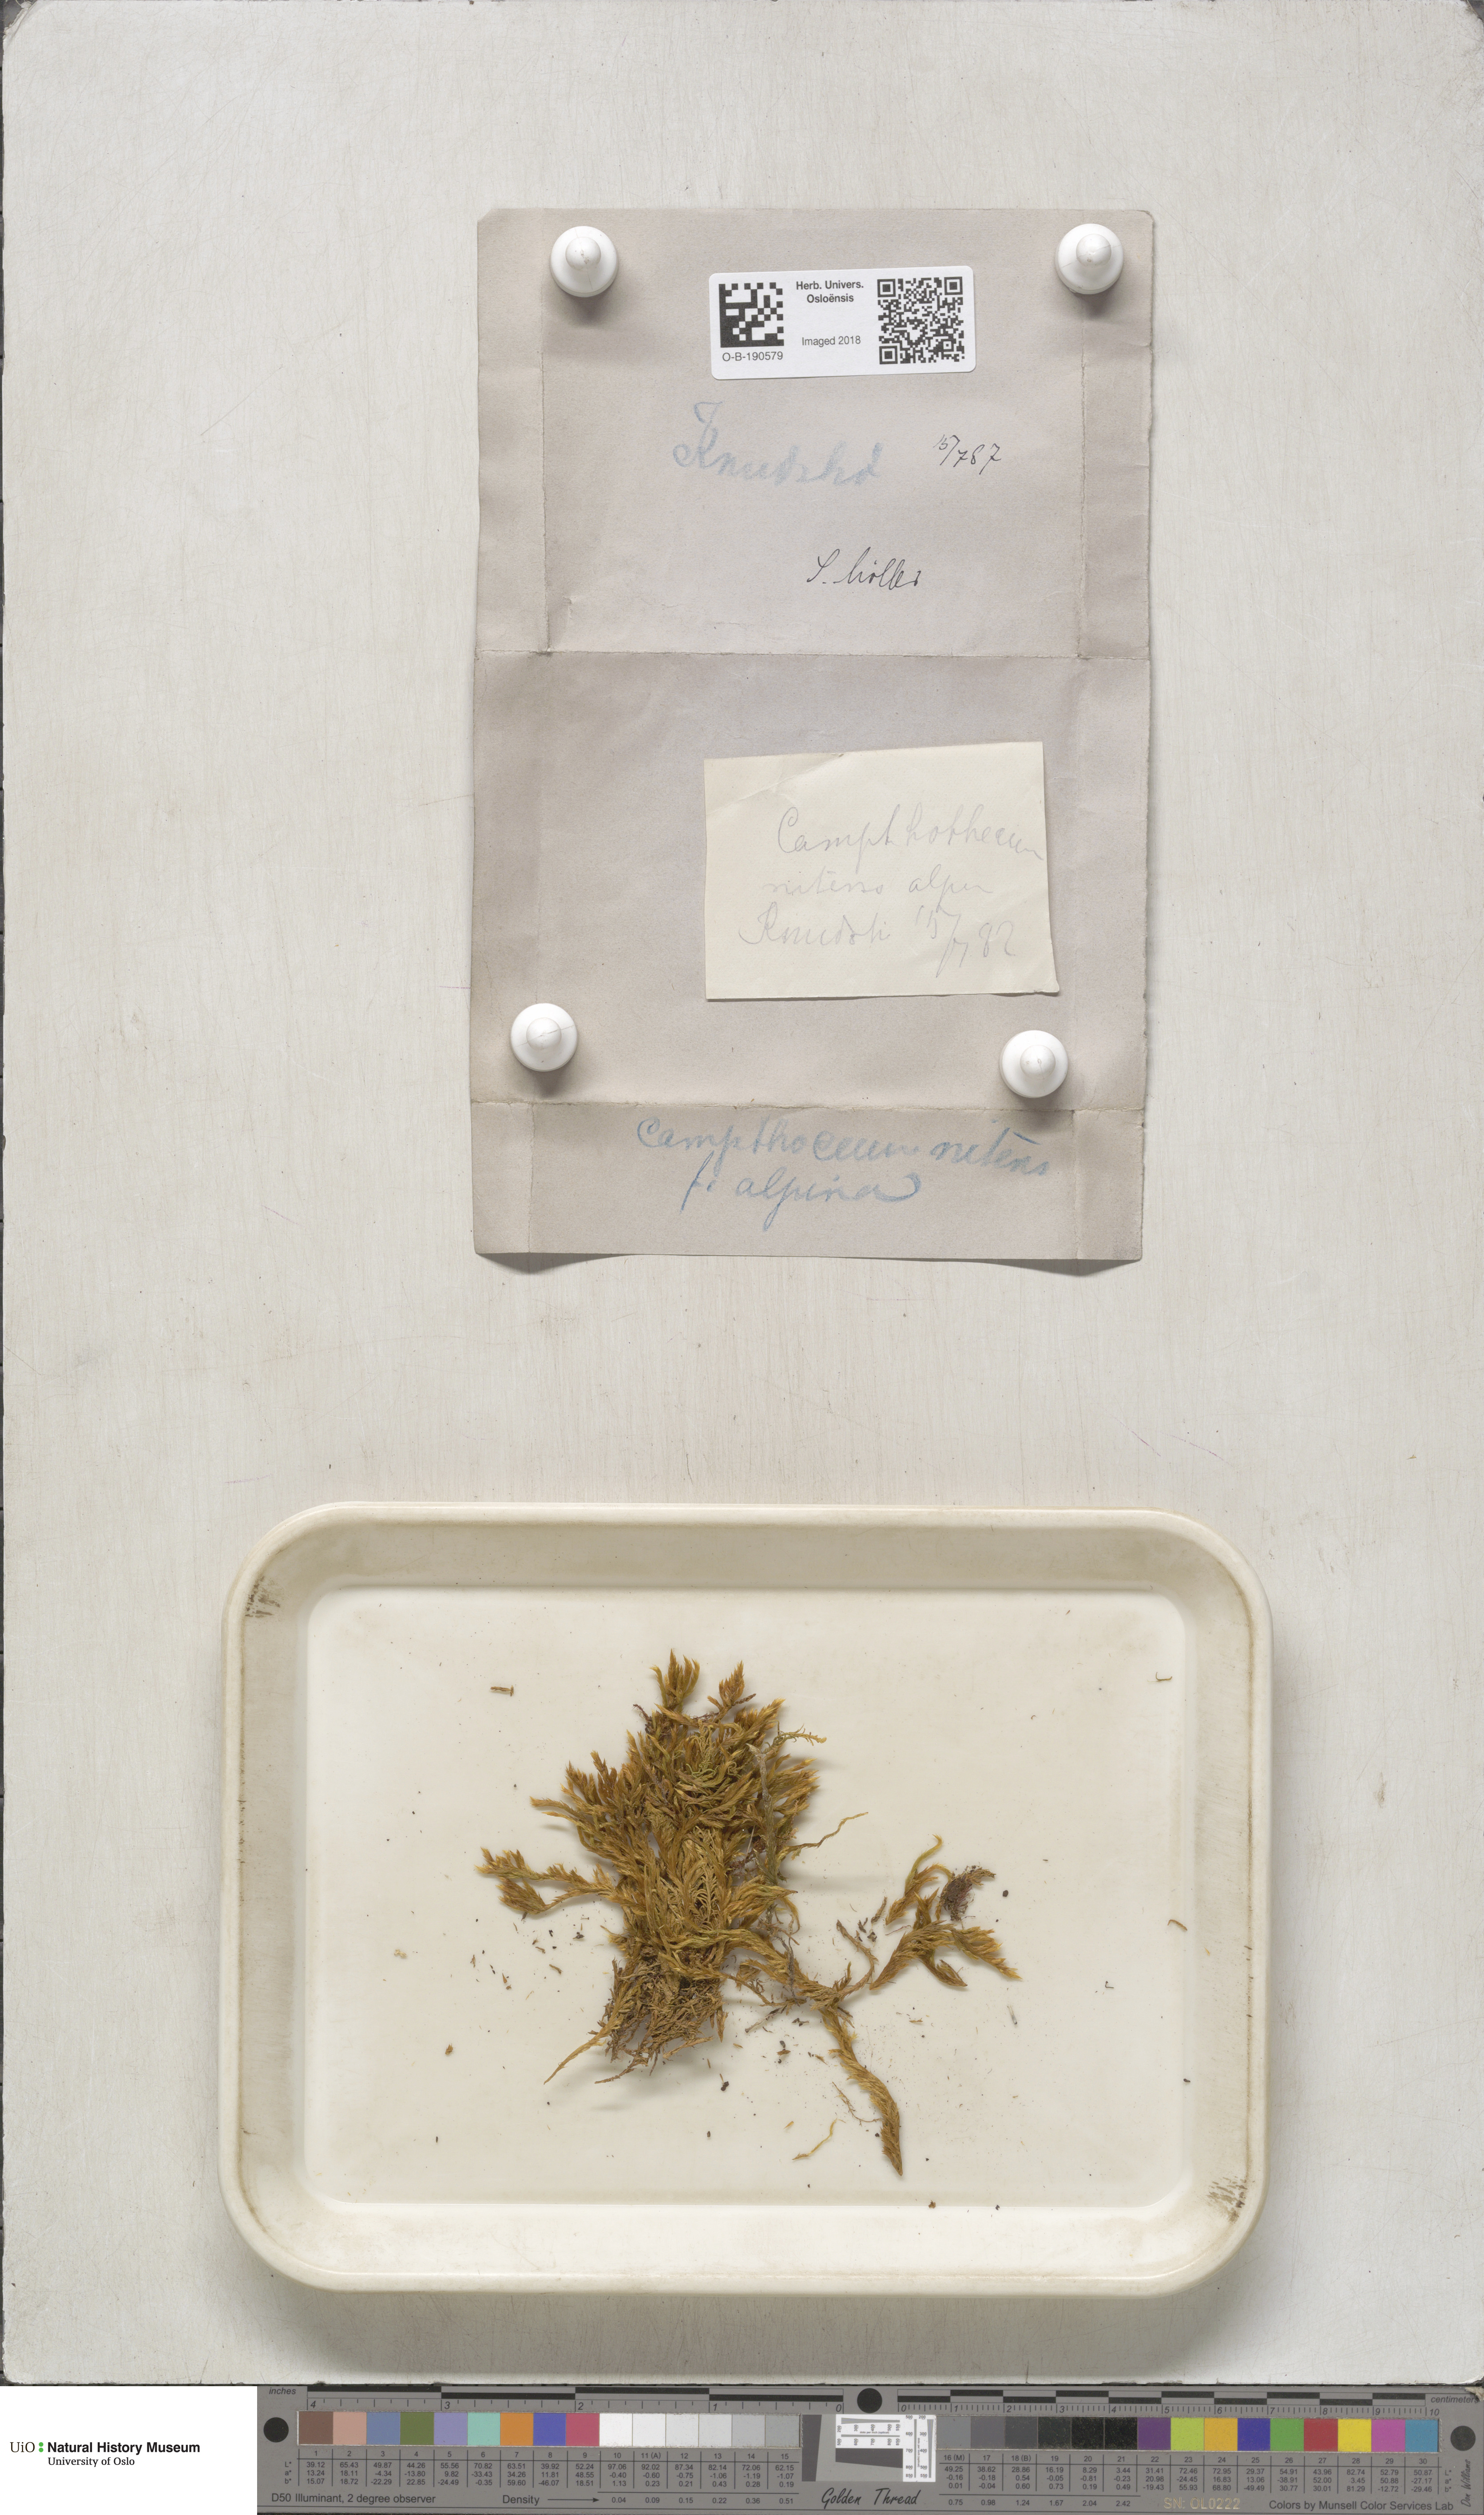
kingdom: Plantae
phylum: Bryophyta
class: Bryopsida
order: Hypnales
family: Amblystegiaceae
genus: Tomentypnum
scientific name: Tomentypnum nitens
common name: Golden fuzzy fen moss
